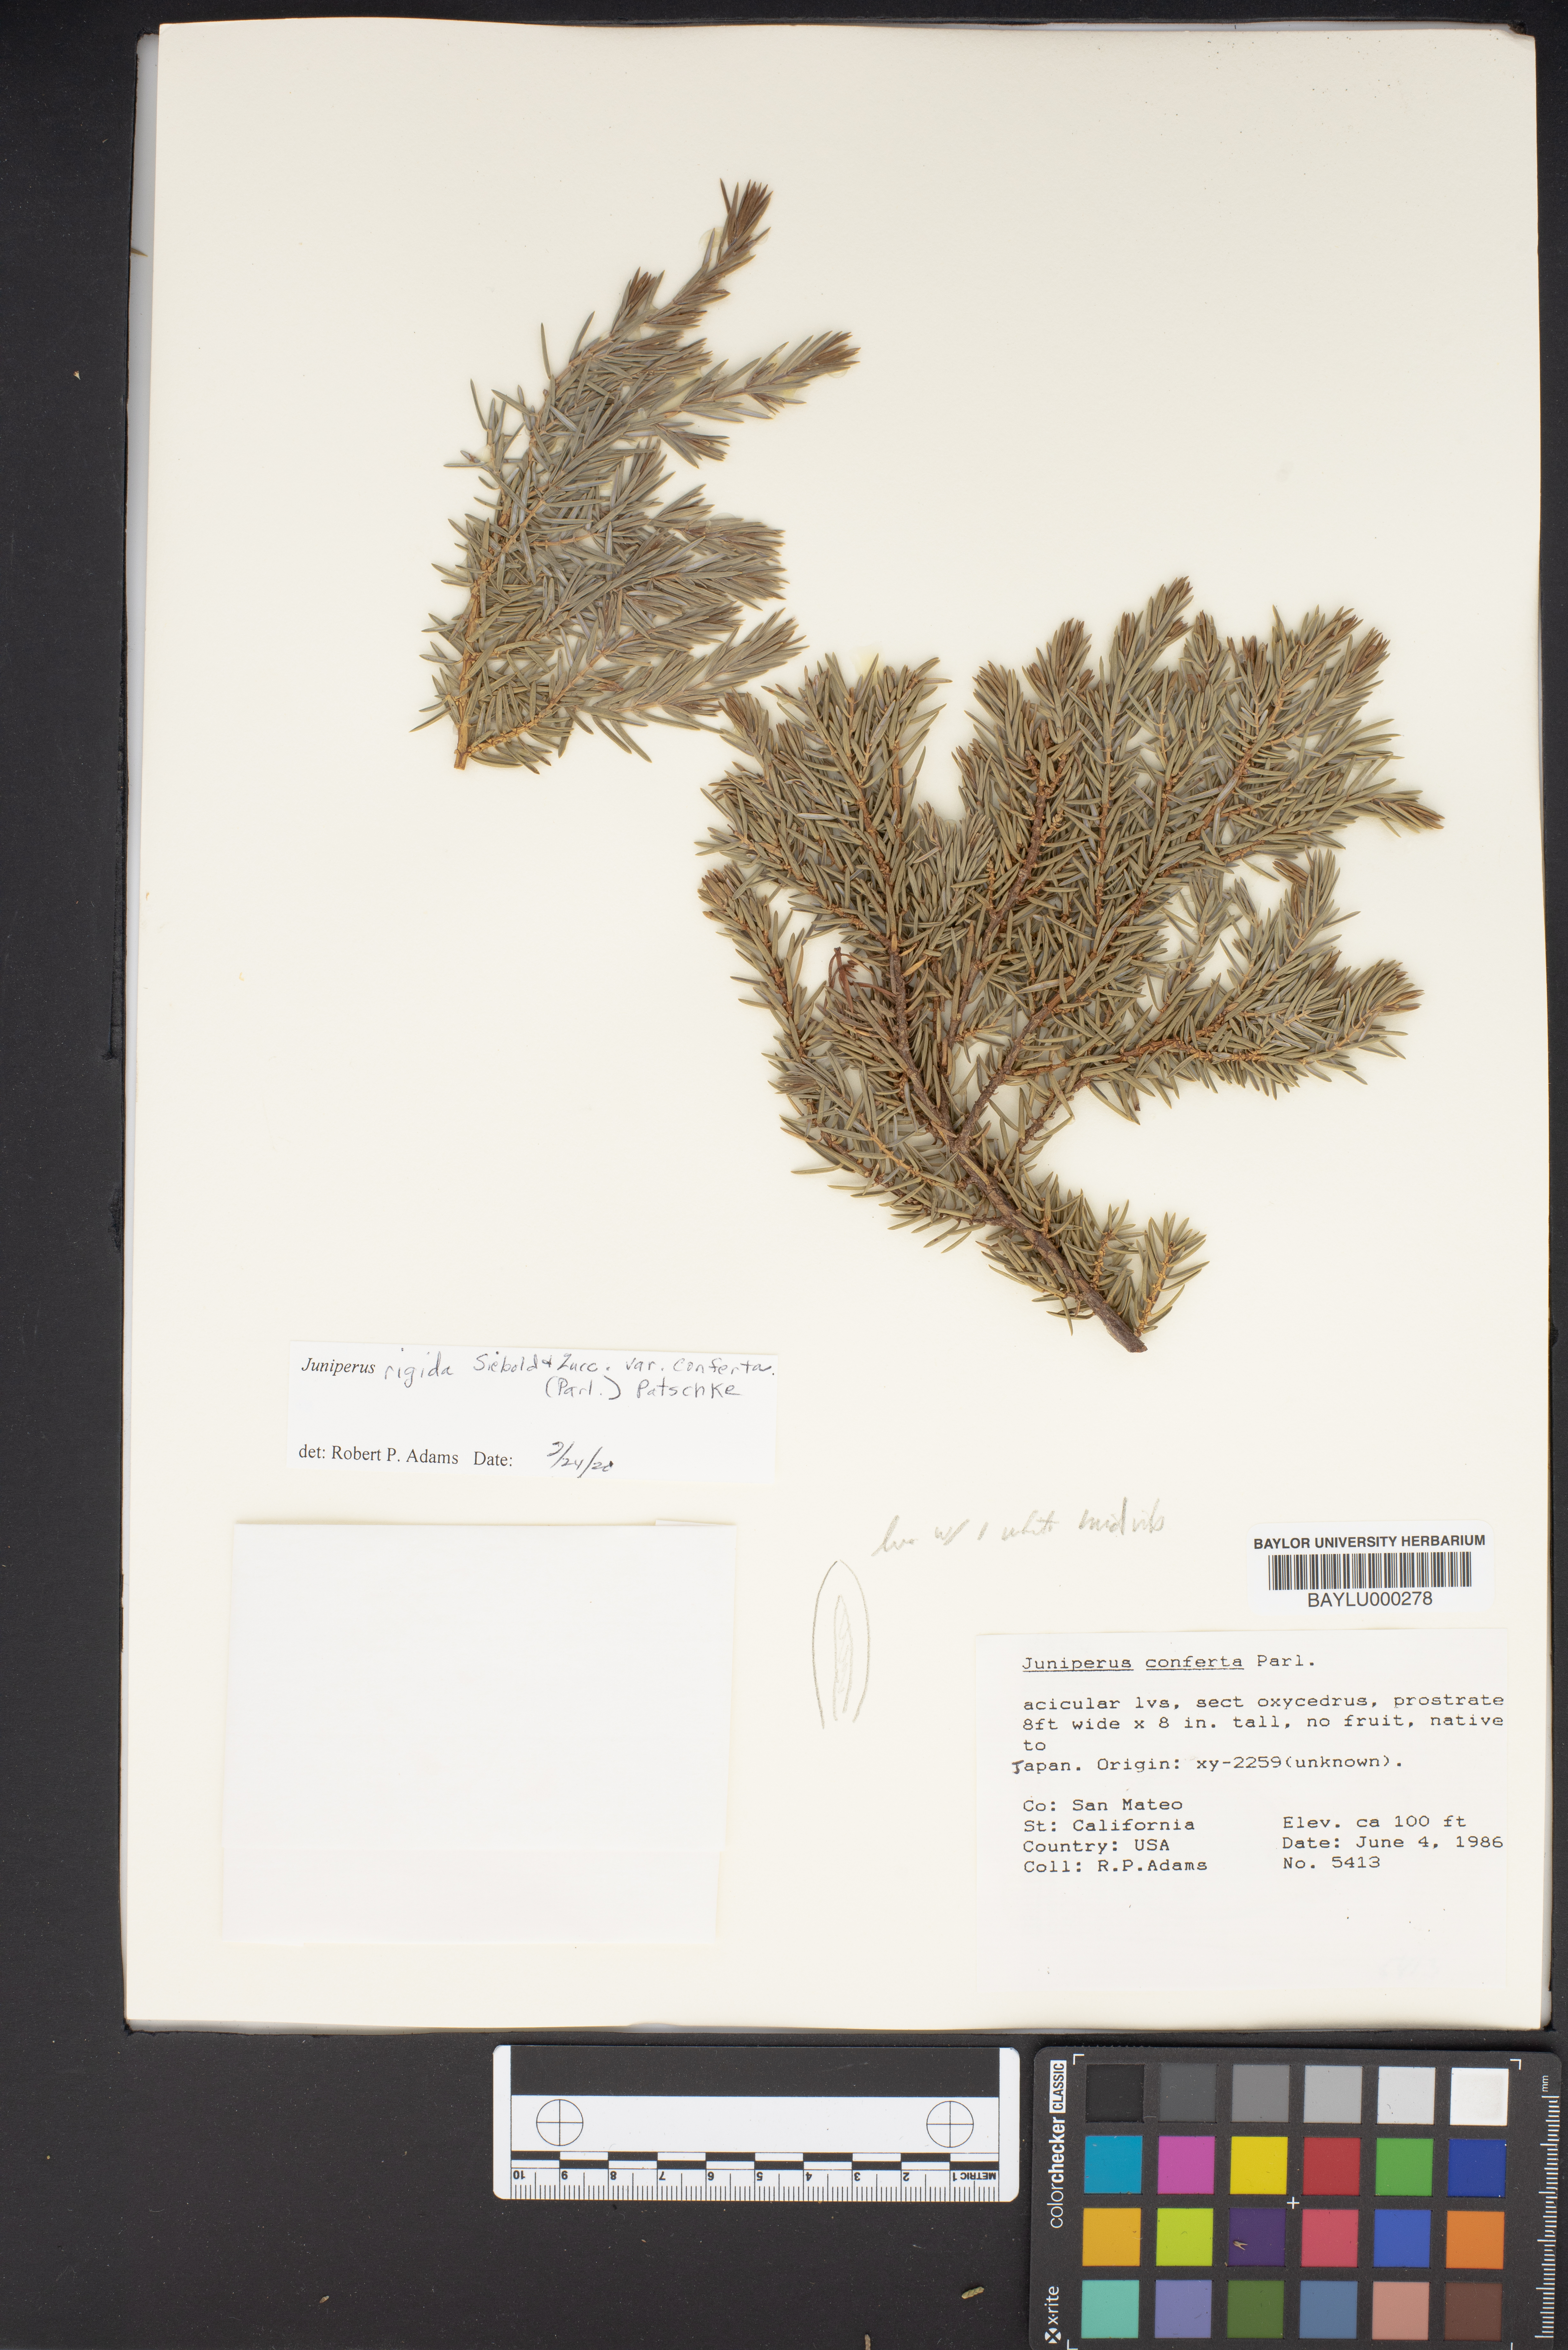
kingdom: Plantae
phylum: Tracheophyta
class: Pinopsida
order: Pinales
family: Cupressaceae
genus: Juniperus
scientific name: Juniperus rigida
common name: Needle juniper
